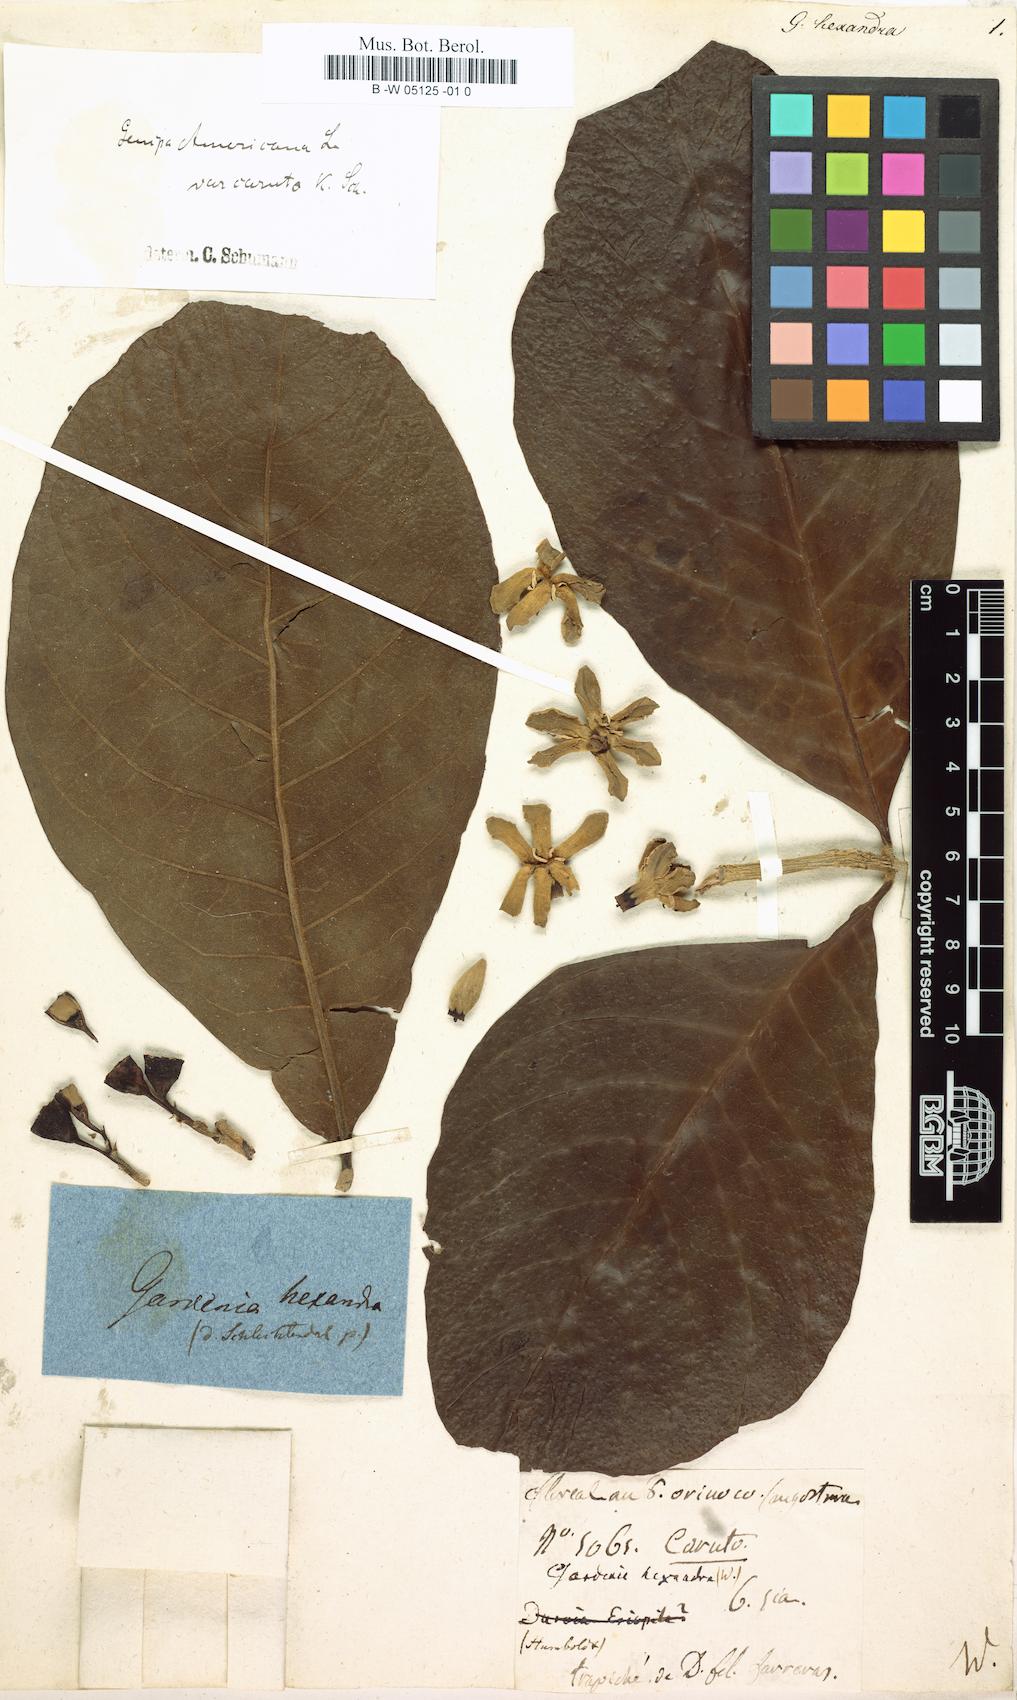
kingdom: Plantae
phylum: Tracheophyta
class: Magnoliopsida
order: Gentianales
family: Rubiaceae
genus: Gardenia
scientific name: Gardenia hexandra
